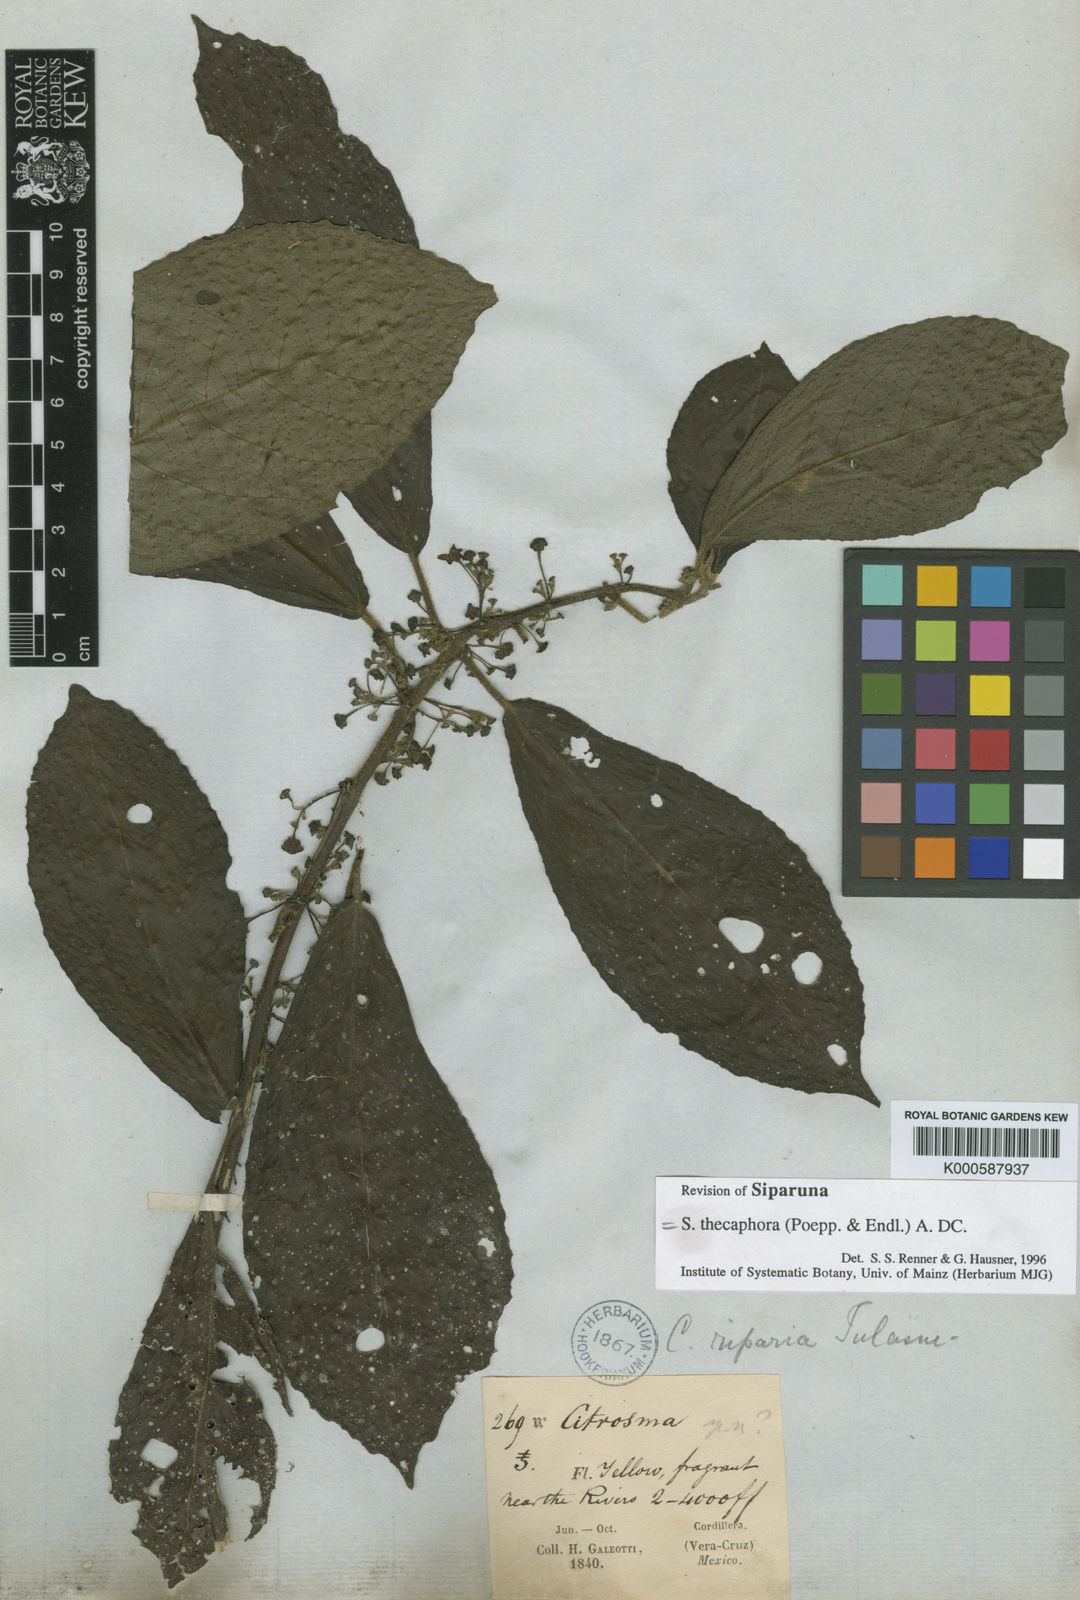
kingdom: Plantae
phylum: Tracheophyta
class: Magnoliopsida
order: Laurales
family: Siparunaceae
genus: Siparuna
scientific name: Siparuna thecaphora
